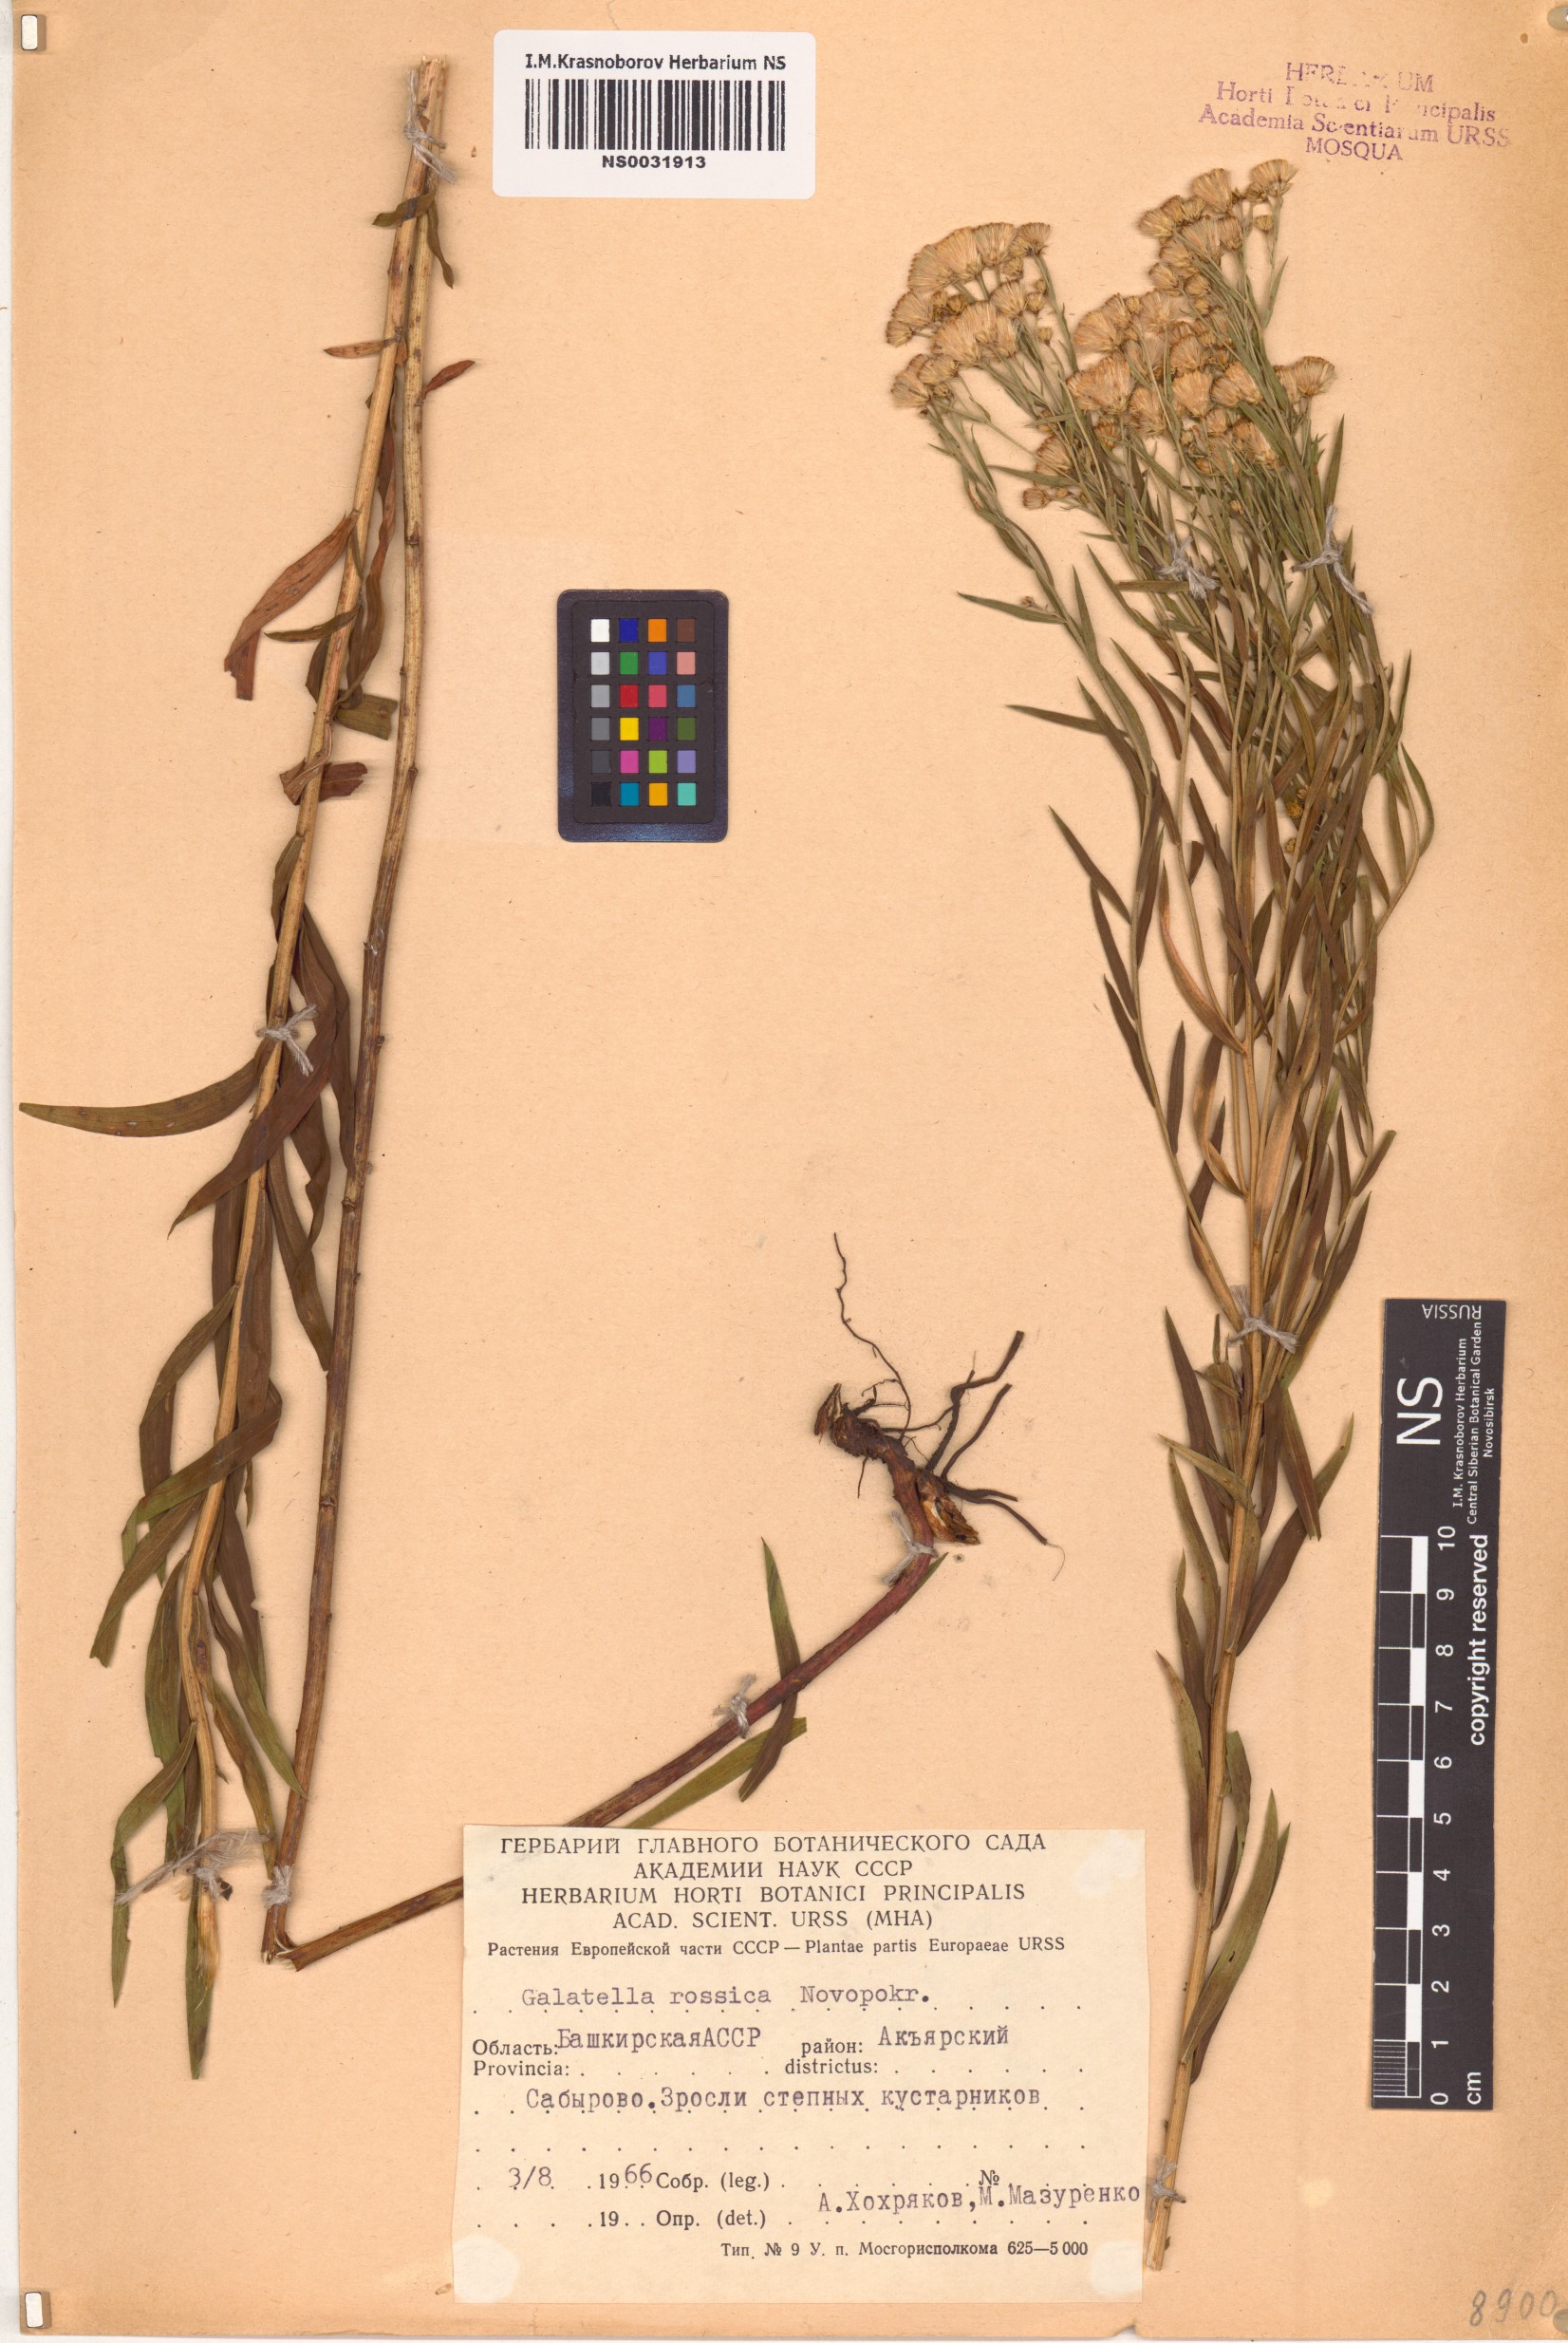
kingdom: Plantae
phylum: Tracheophyta
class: Magnoliopsida
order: Asterales
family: Asteraceae
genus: Galatella
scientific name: Galatella sedifolia
